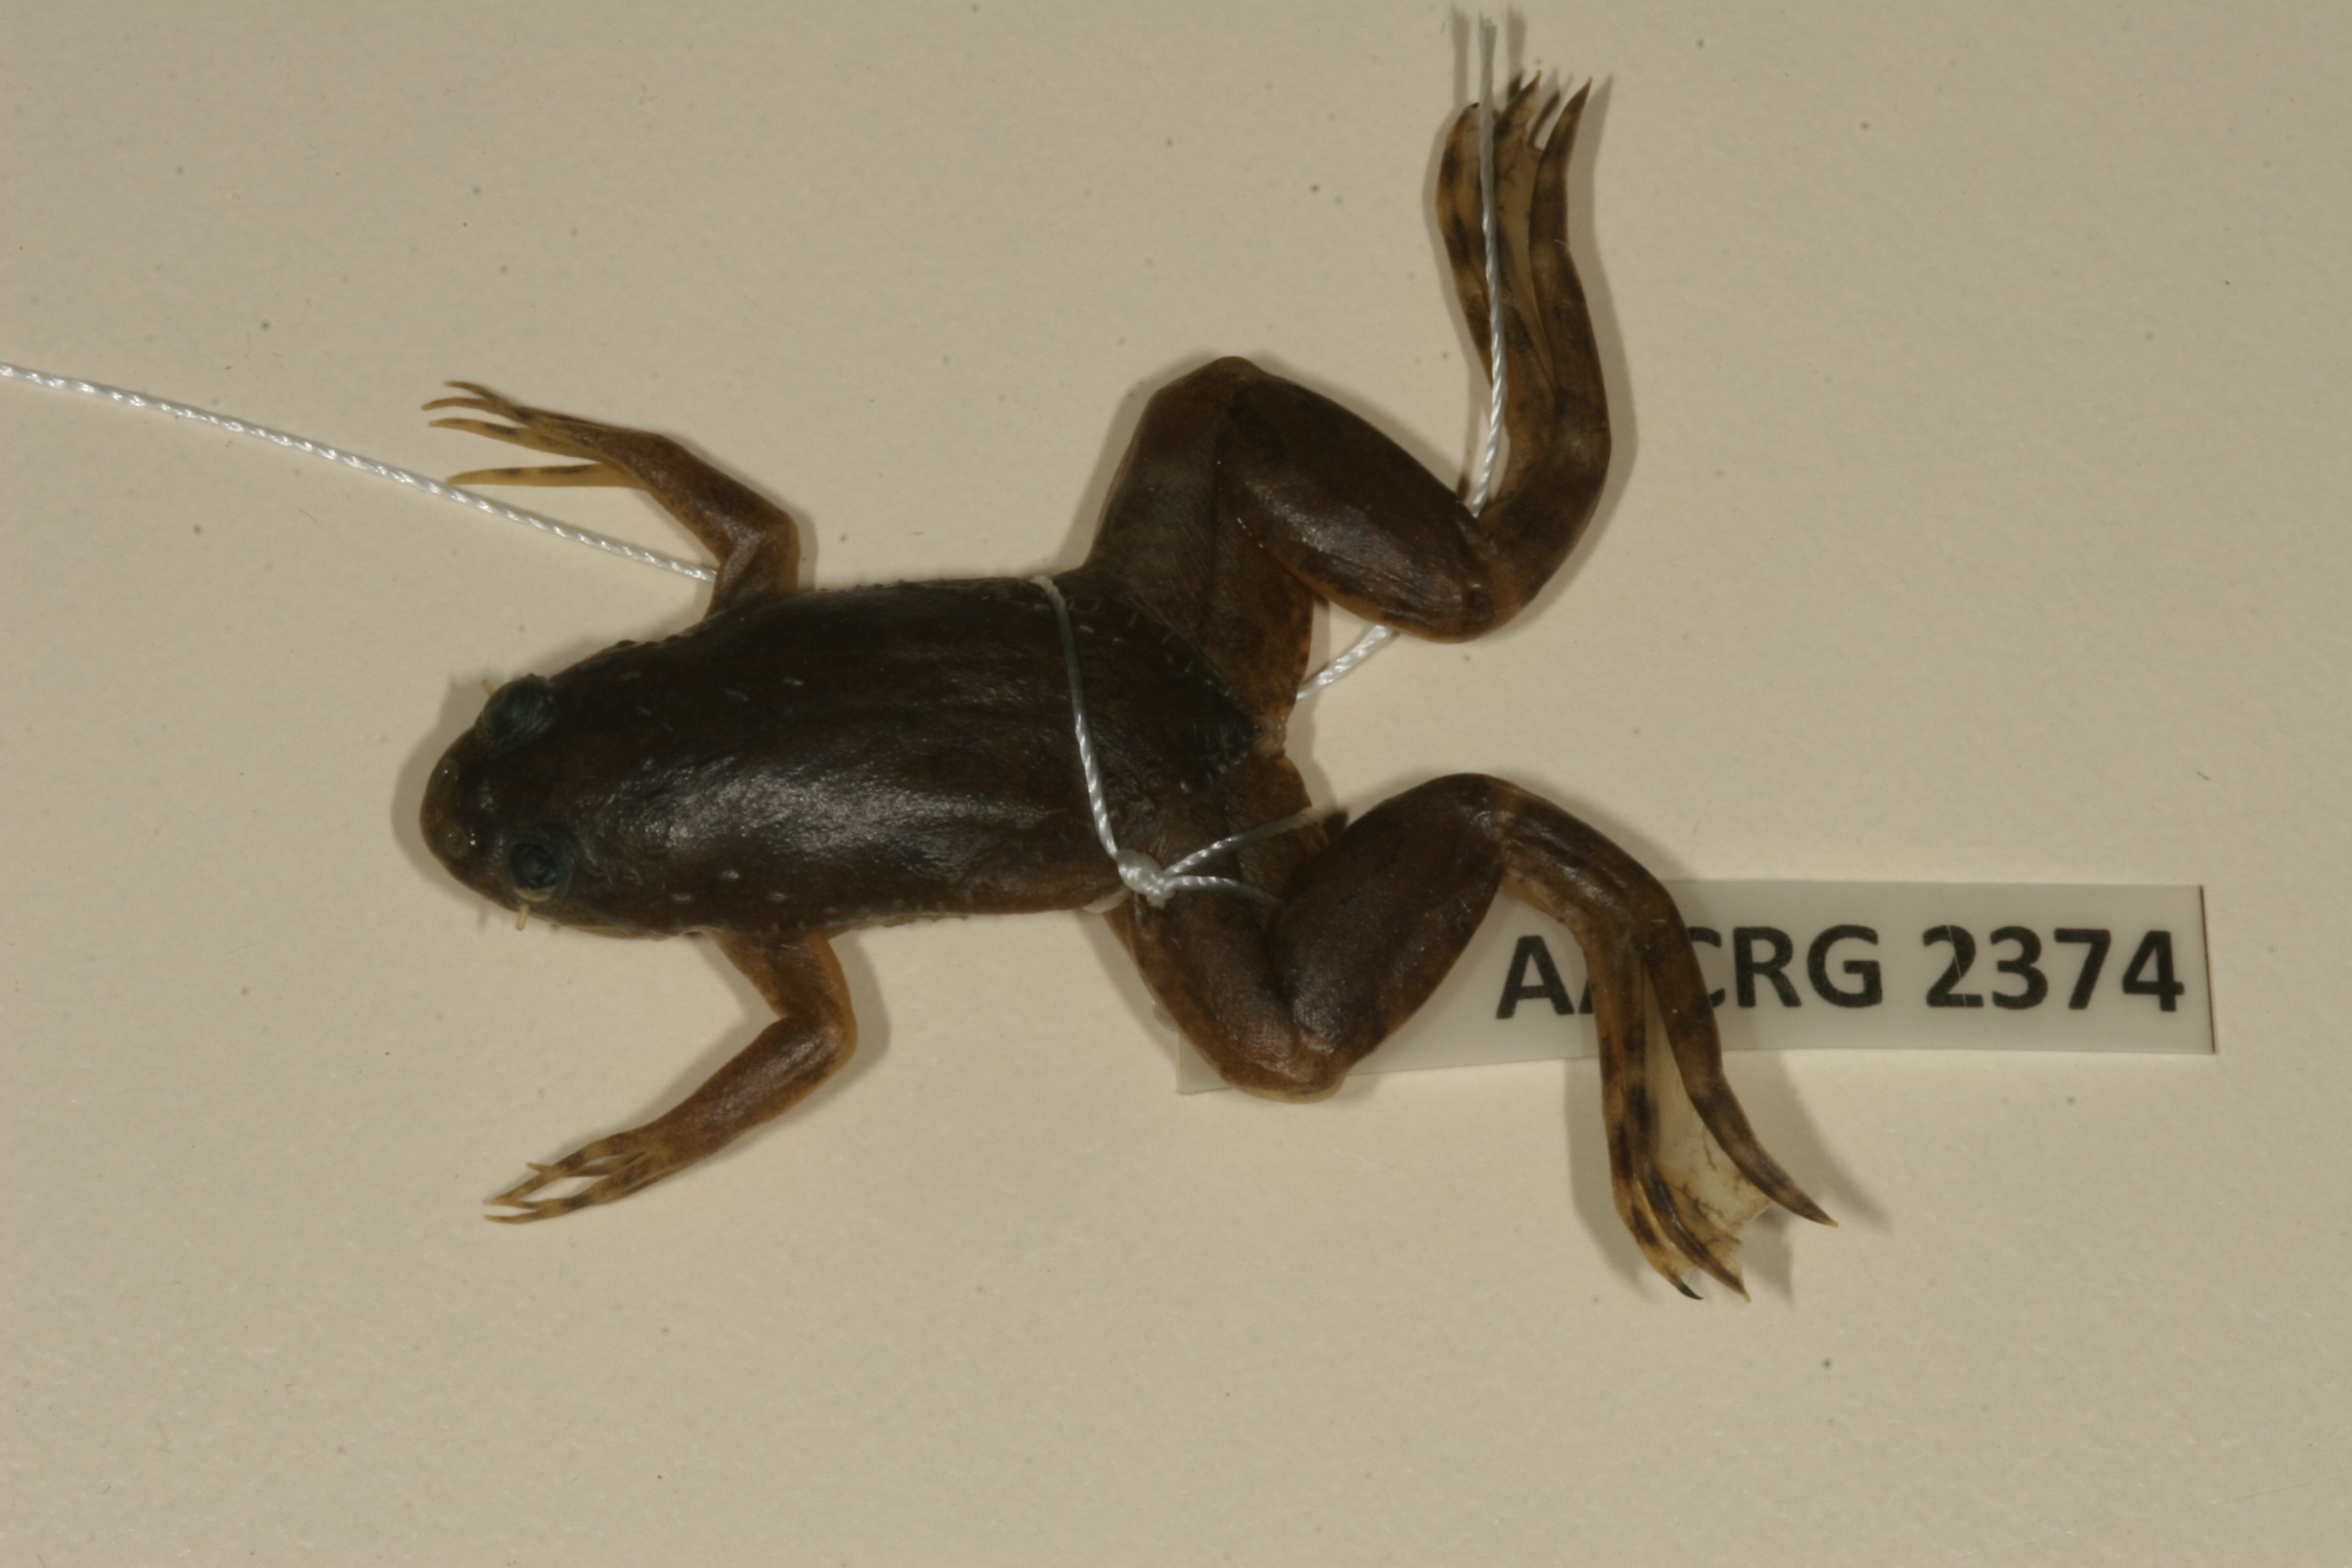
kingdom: Animalia
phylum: Chordata
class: Amphibia
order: Anura
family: Pipidae
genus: Xenopus
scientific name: Xenopus muelleri
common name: Muller's clawed frog
